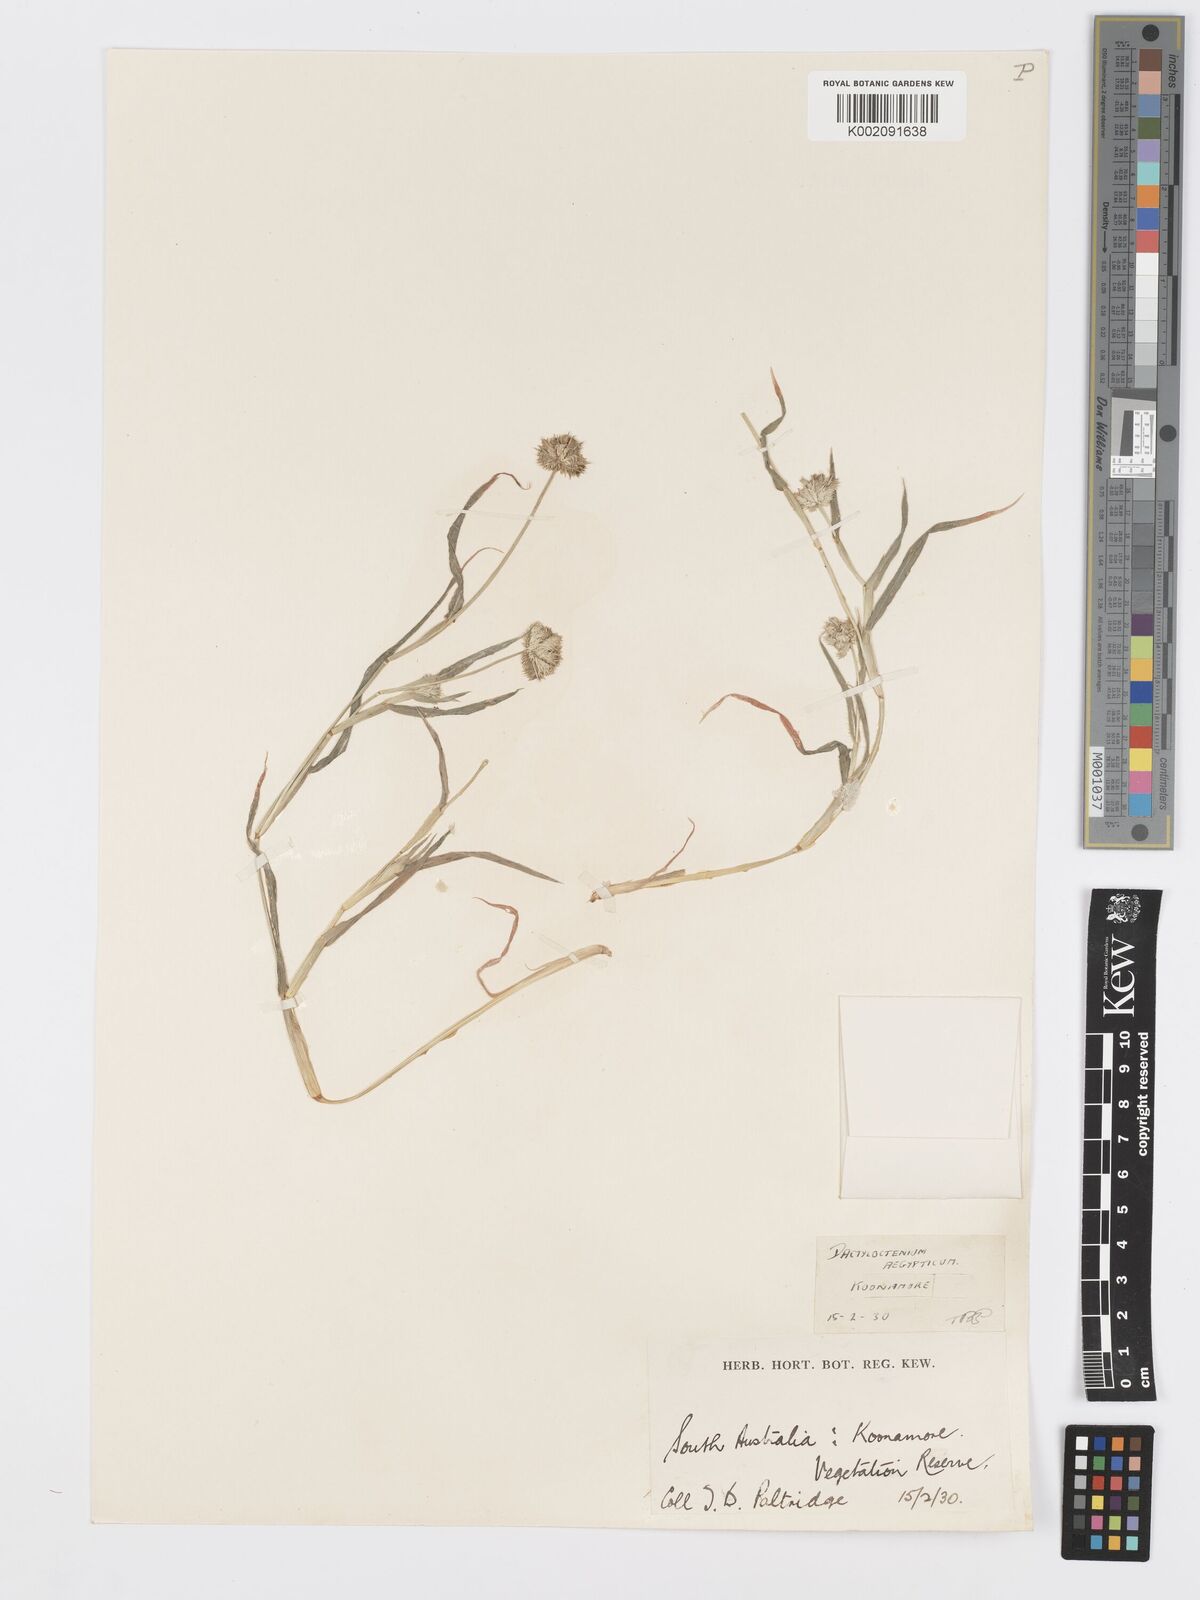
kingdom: Plantae
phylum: Tracheophyta
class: Liliopsida
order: Poales
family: Poaceae
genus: Dactyloctenium
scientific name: Dactyloctenium radulans
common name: Button-grass
